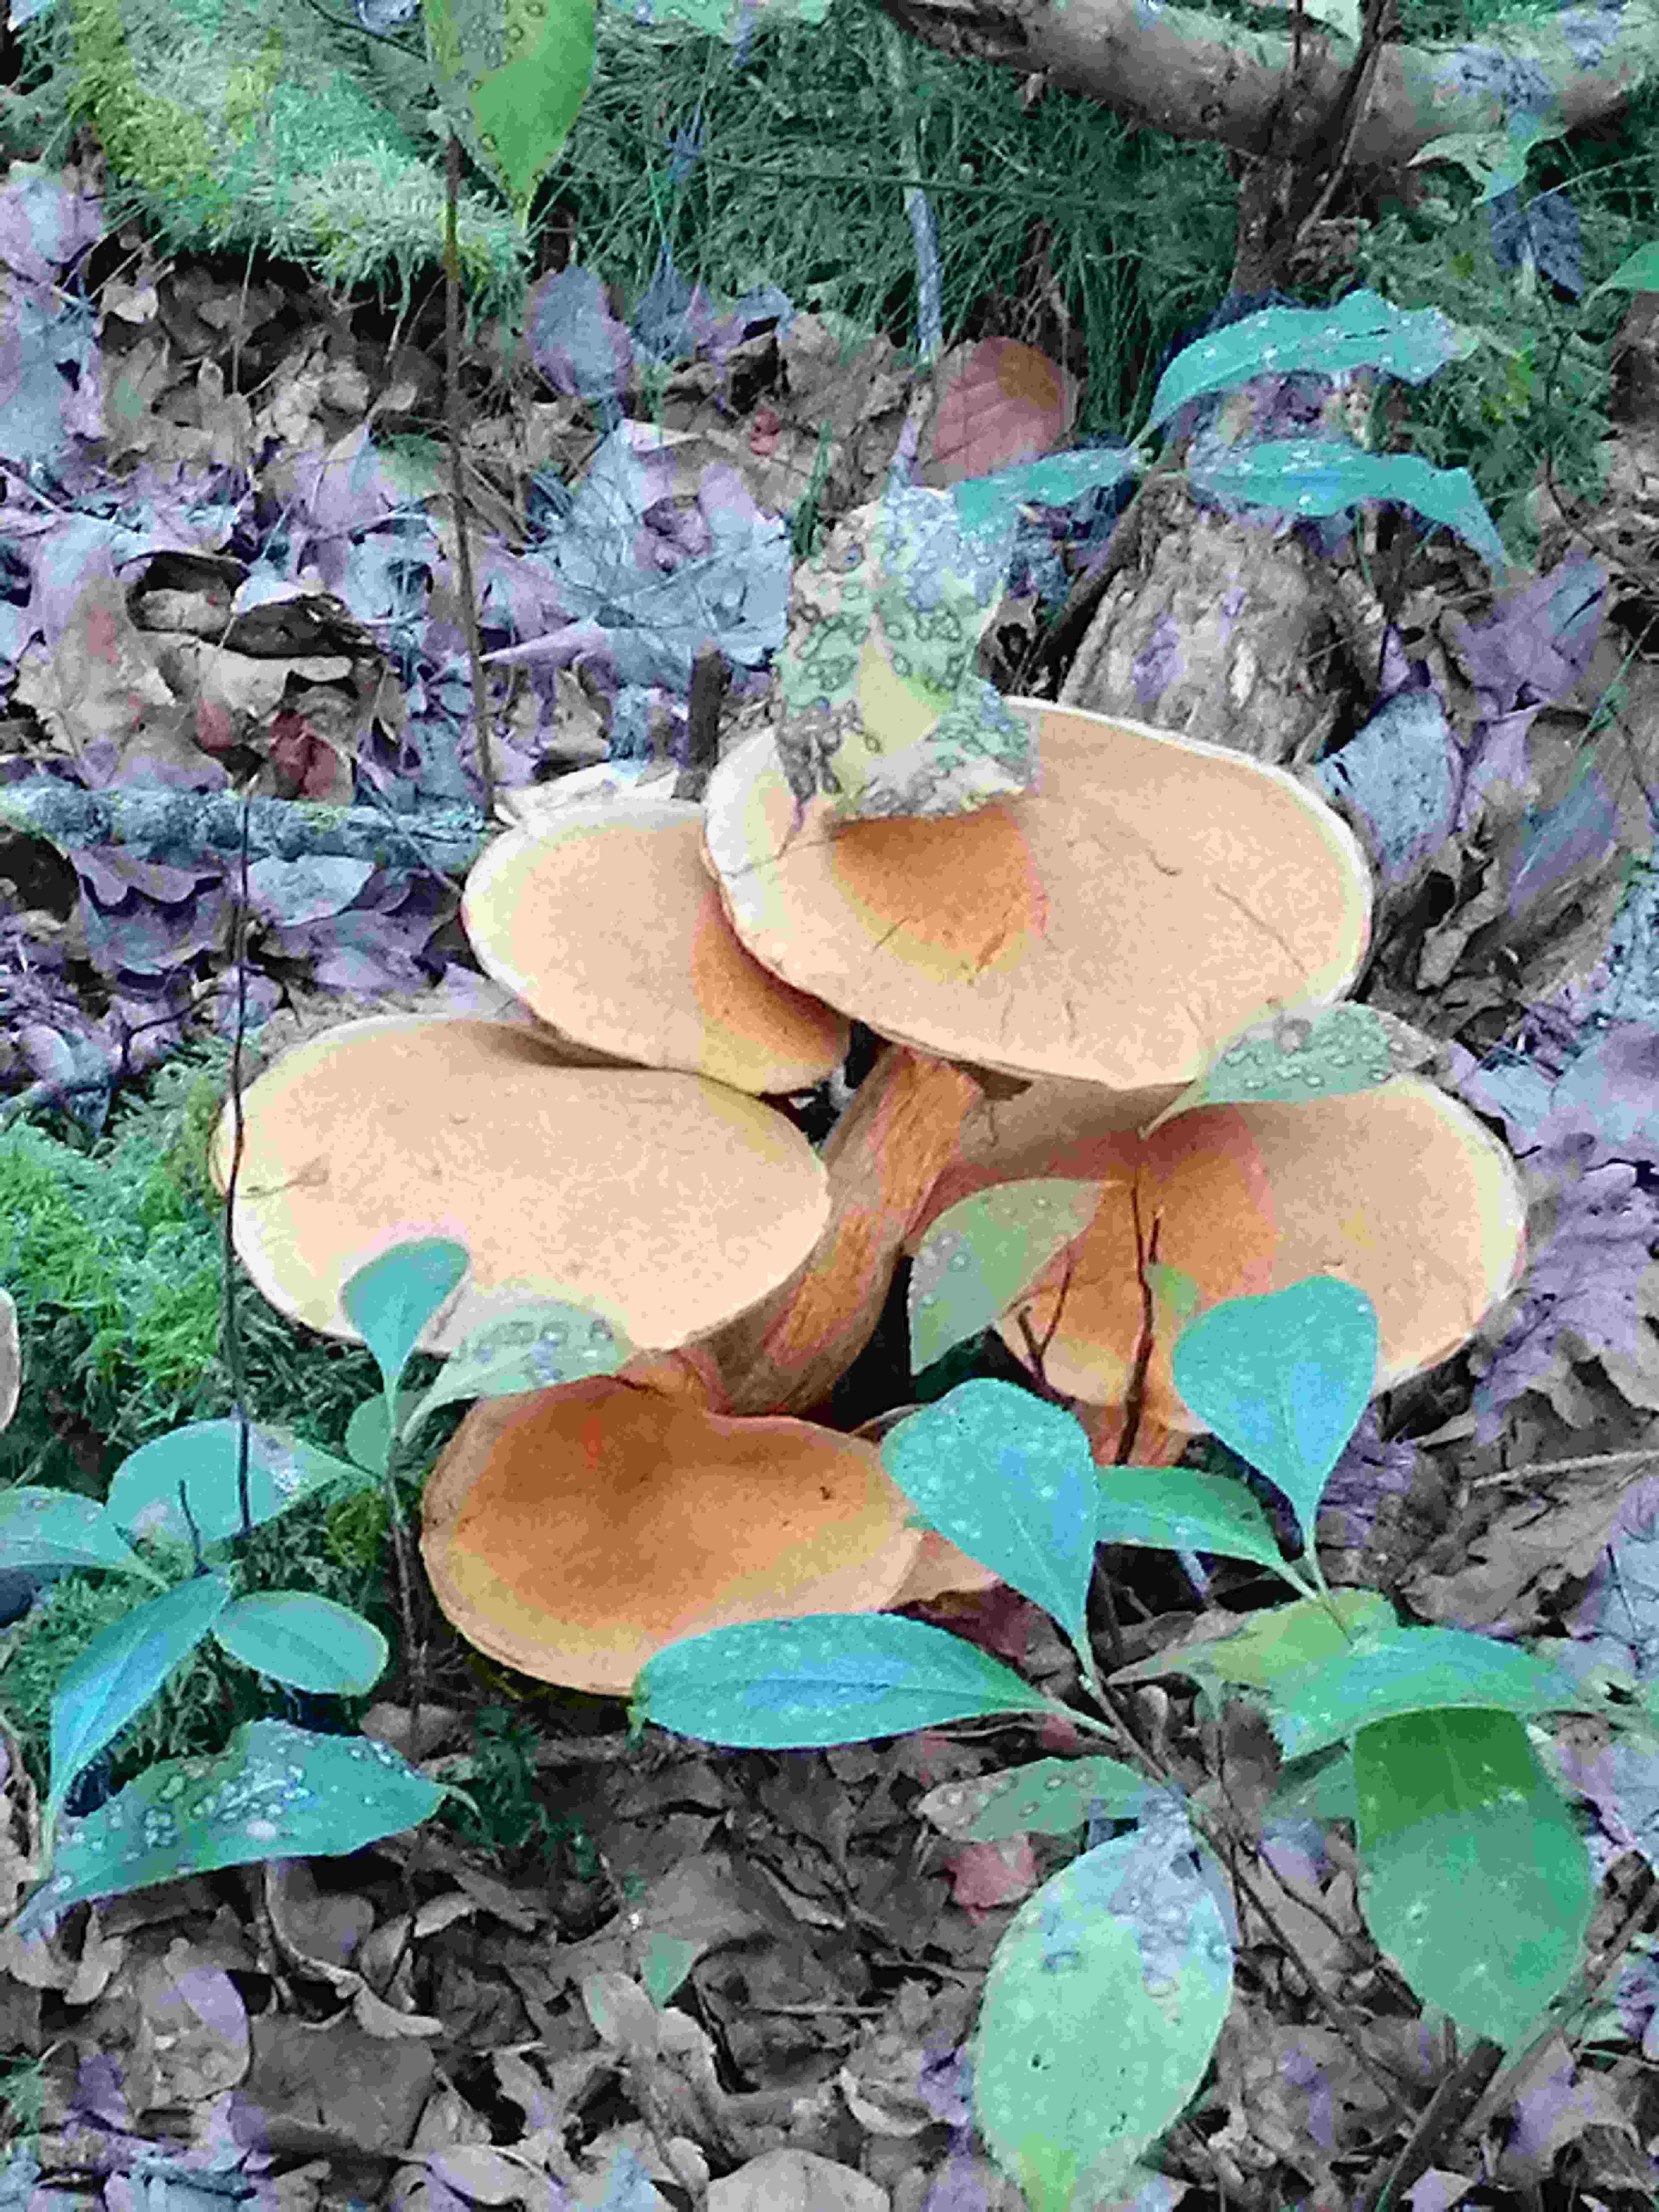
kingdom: Fungi
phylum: Basidiomycota
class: Agaricomycetes
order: Agaricales
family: Hymenogastraceae
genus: Gymnopilus
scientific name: Gymnopilus spectabilis
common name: fibret flammehat
